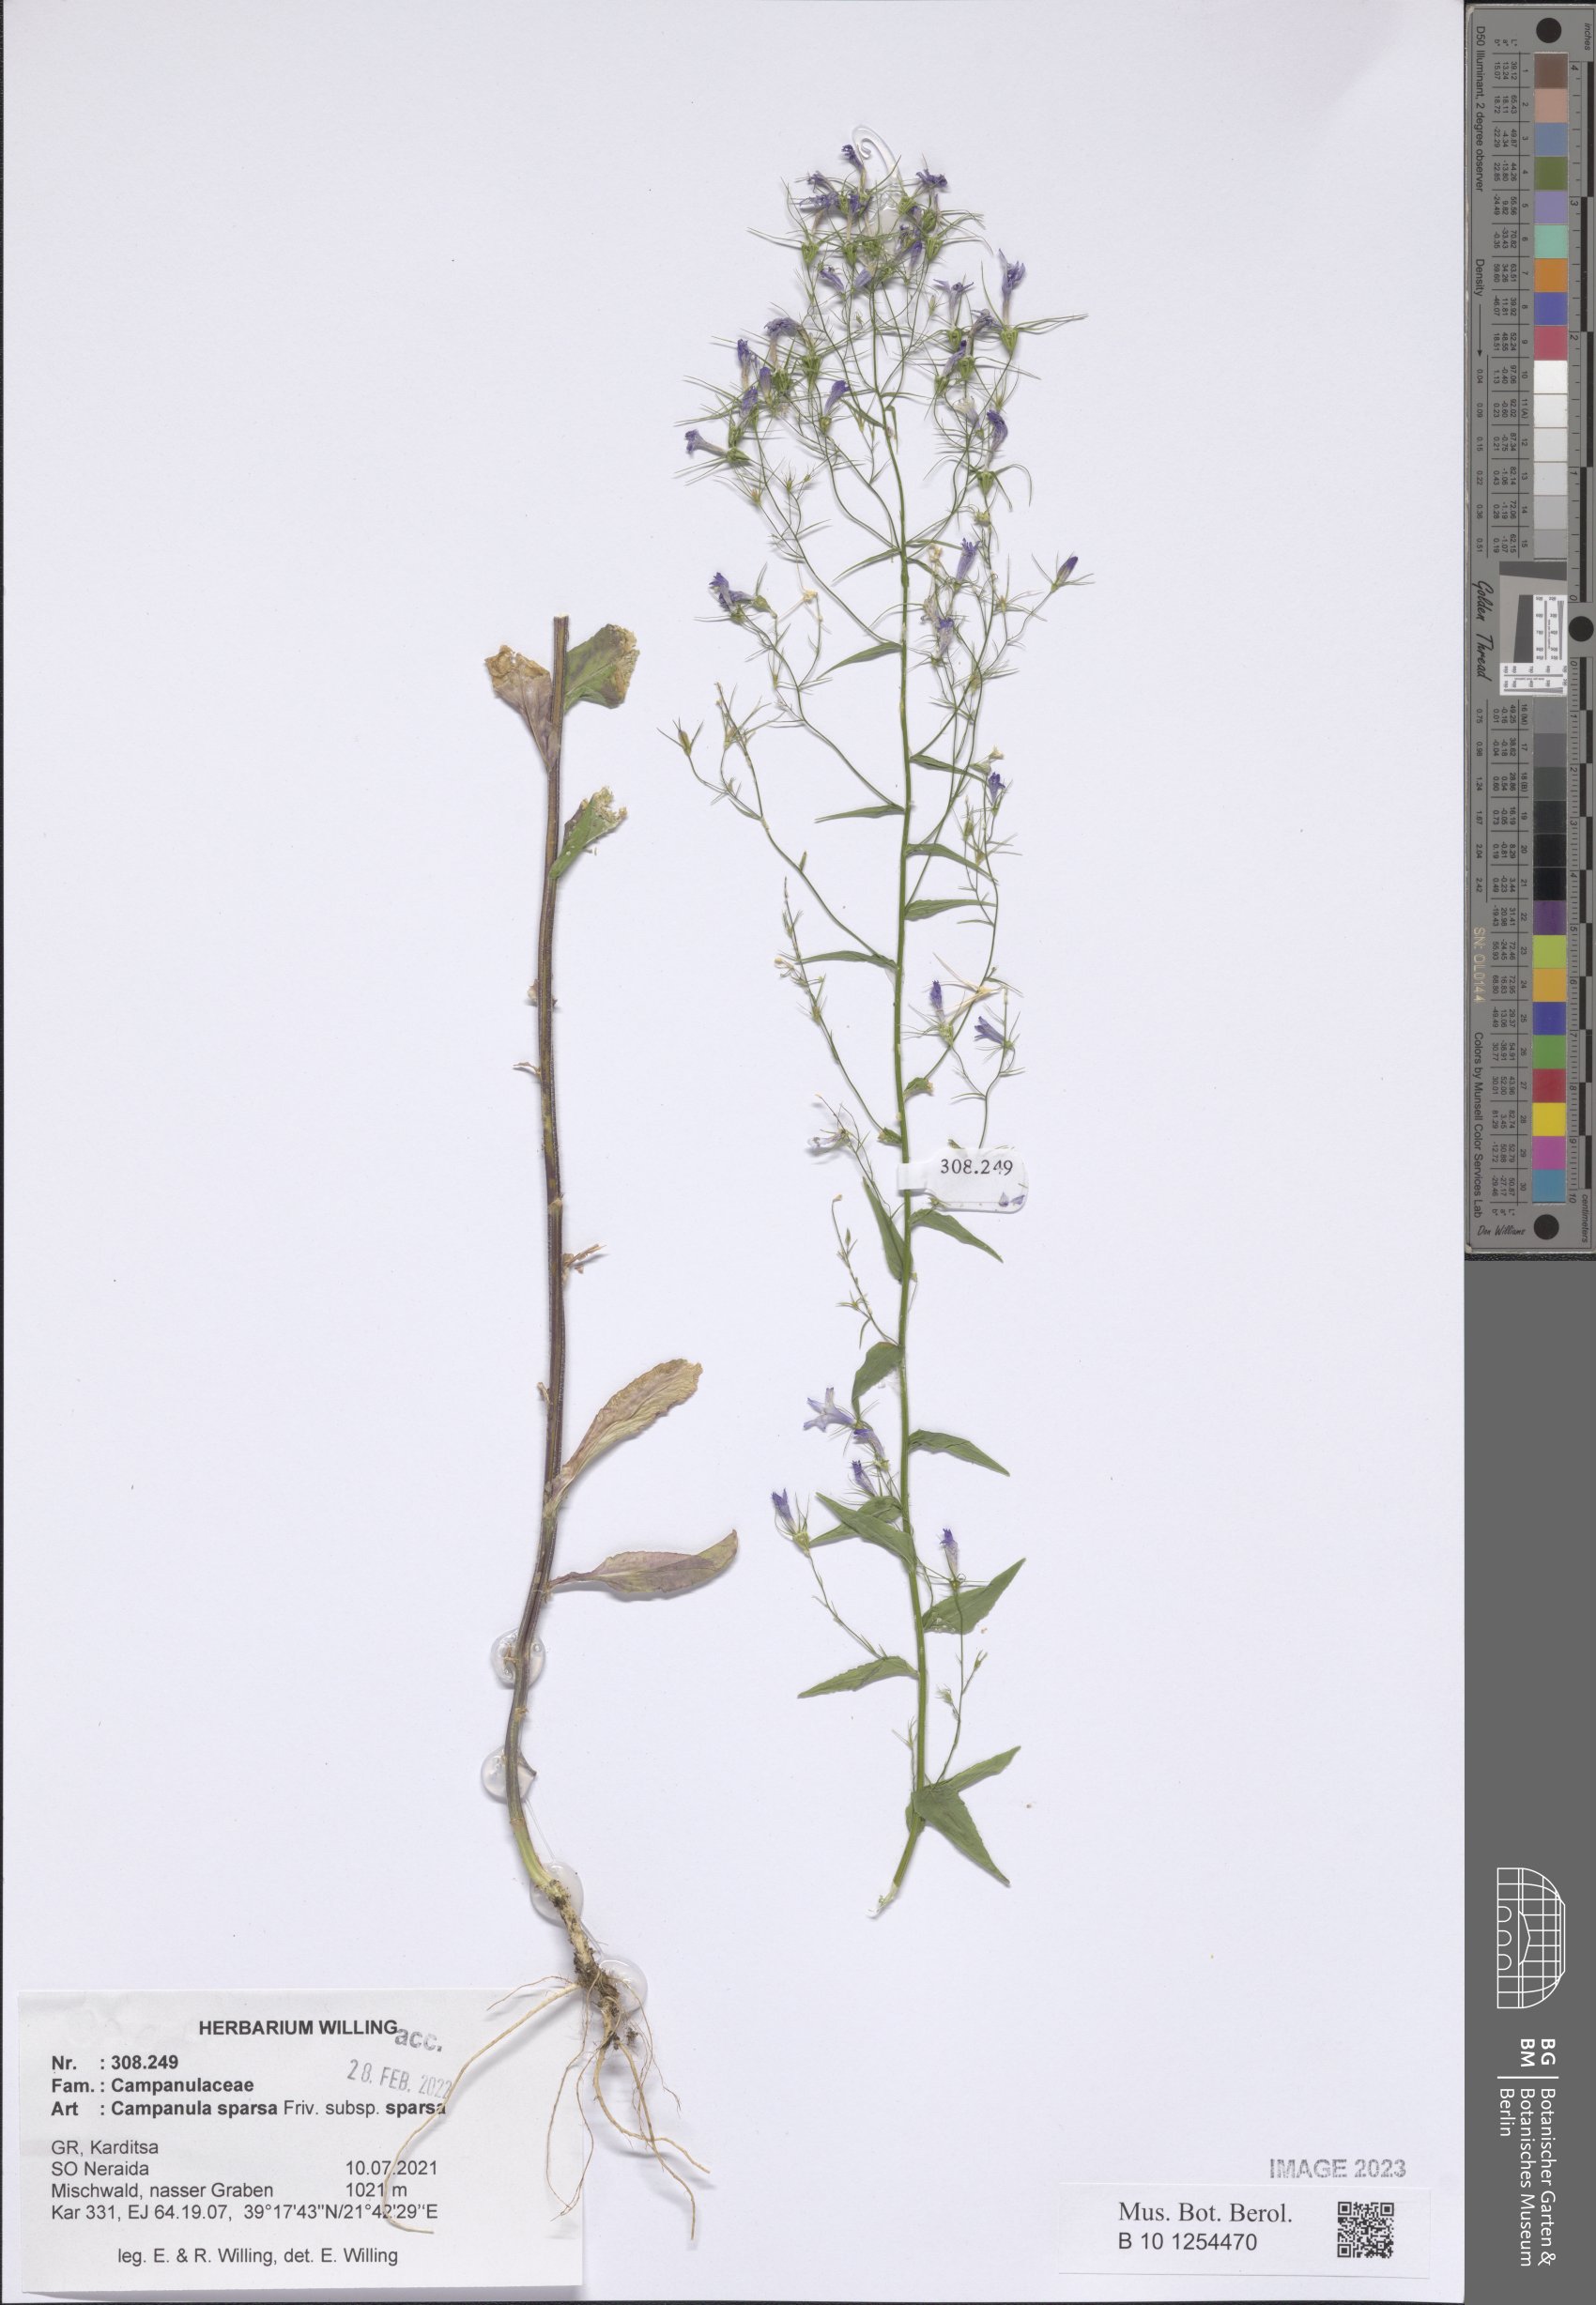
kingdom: Plantae
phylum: Tracheophyta
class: Magnoliopsida
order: Asterales
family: Campanulaceae
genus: Campanula
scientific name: Campanula sparsa
